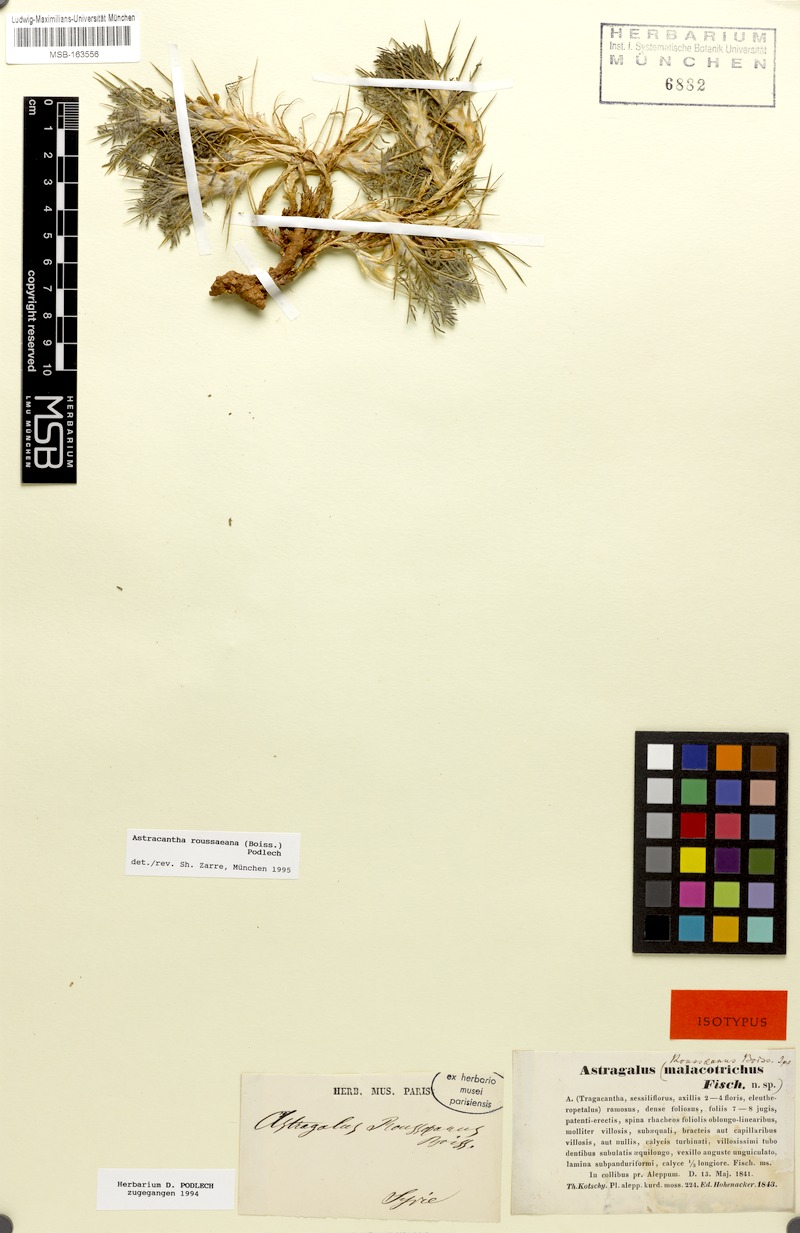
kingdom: Plantae
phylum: Tracheophyta
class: Magnoliopsida
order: Fabales
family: Fabaceae
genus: Astragalus
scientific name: Astragalus rousseanus
